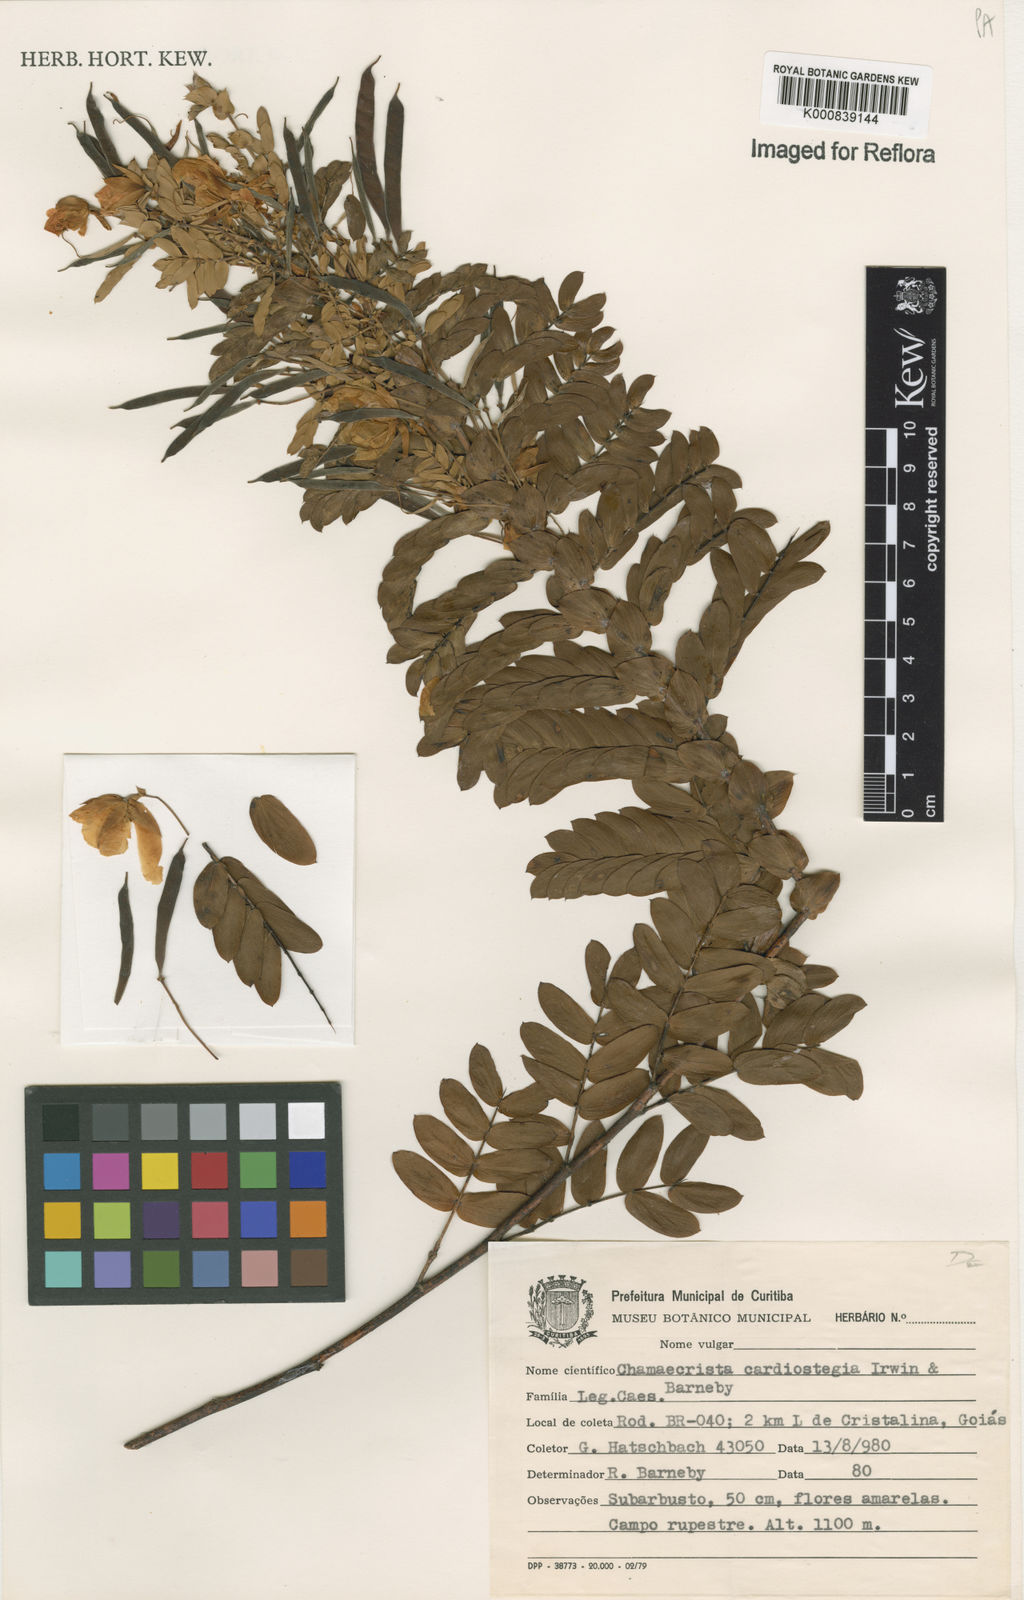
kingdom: Plantae
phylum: Tracheophyta
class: Magnoliopsida
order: Fabales
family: Fabaceae
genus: Chamaecrista
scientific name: Chamaecrista cardiostegia
